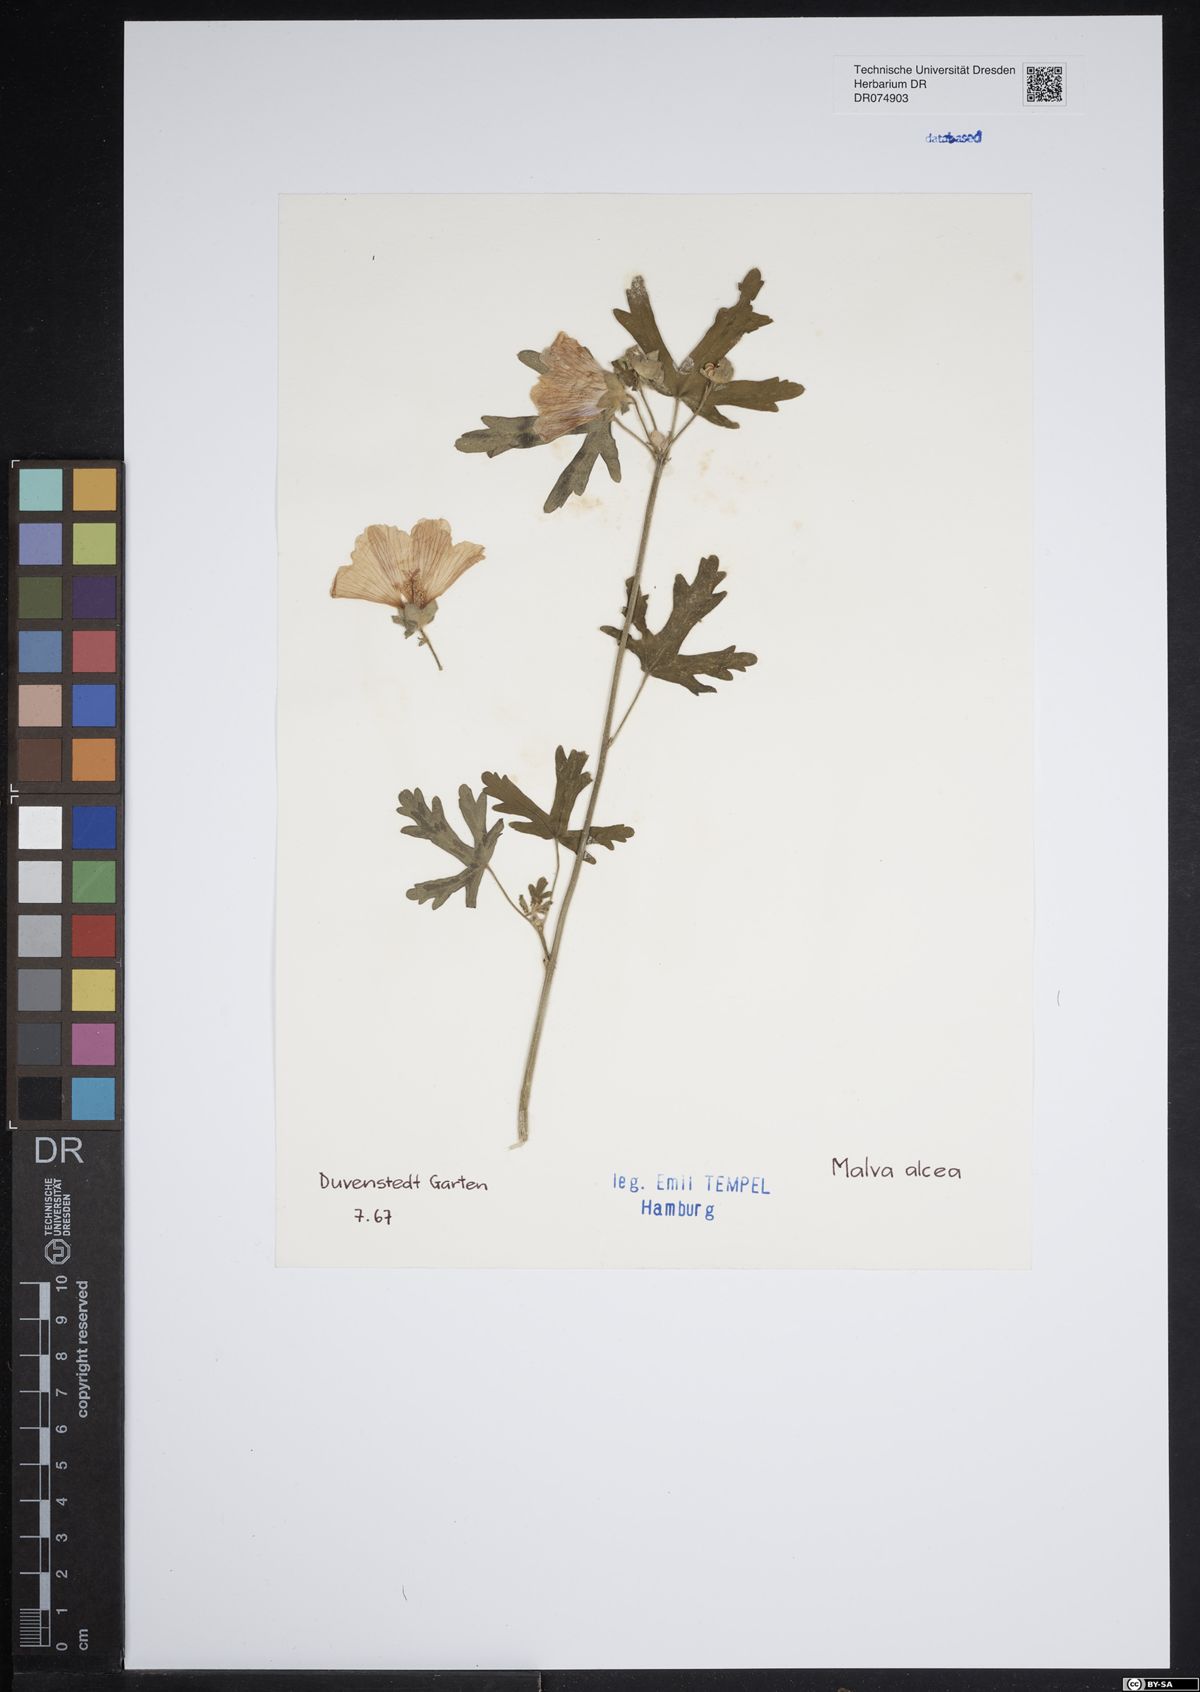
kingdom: Plantae
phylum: Tracheophyta
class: Magnoliopsida
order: Malvales
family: Malvaceae
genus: Malva
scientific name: Malva alcea
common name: Greater musk-mallow
